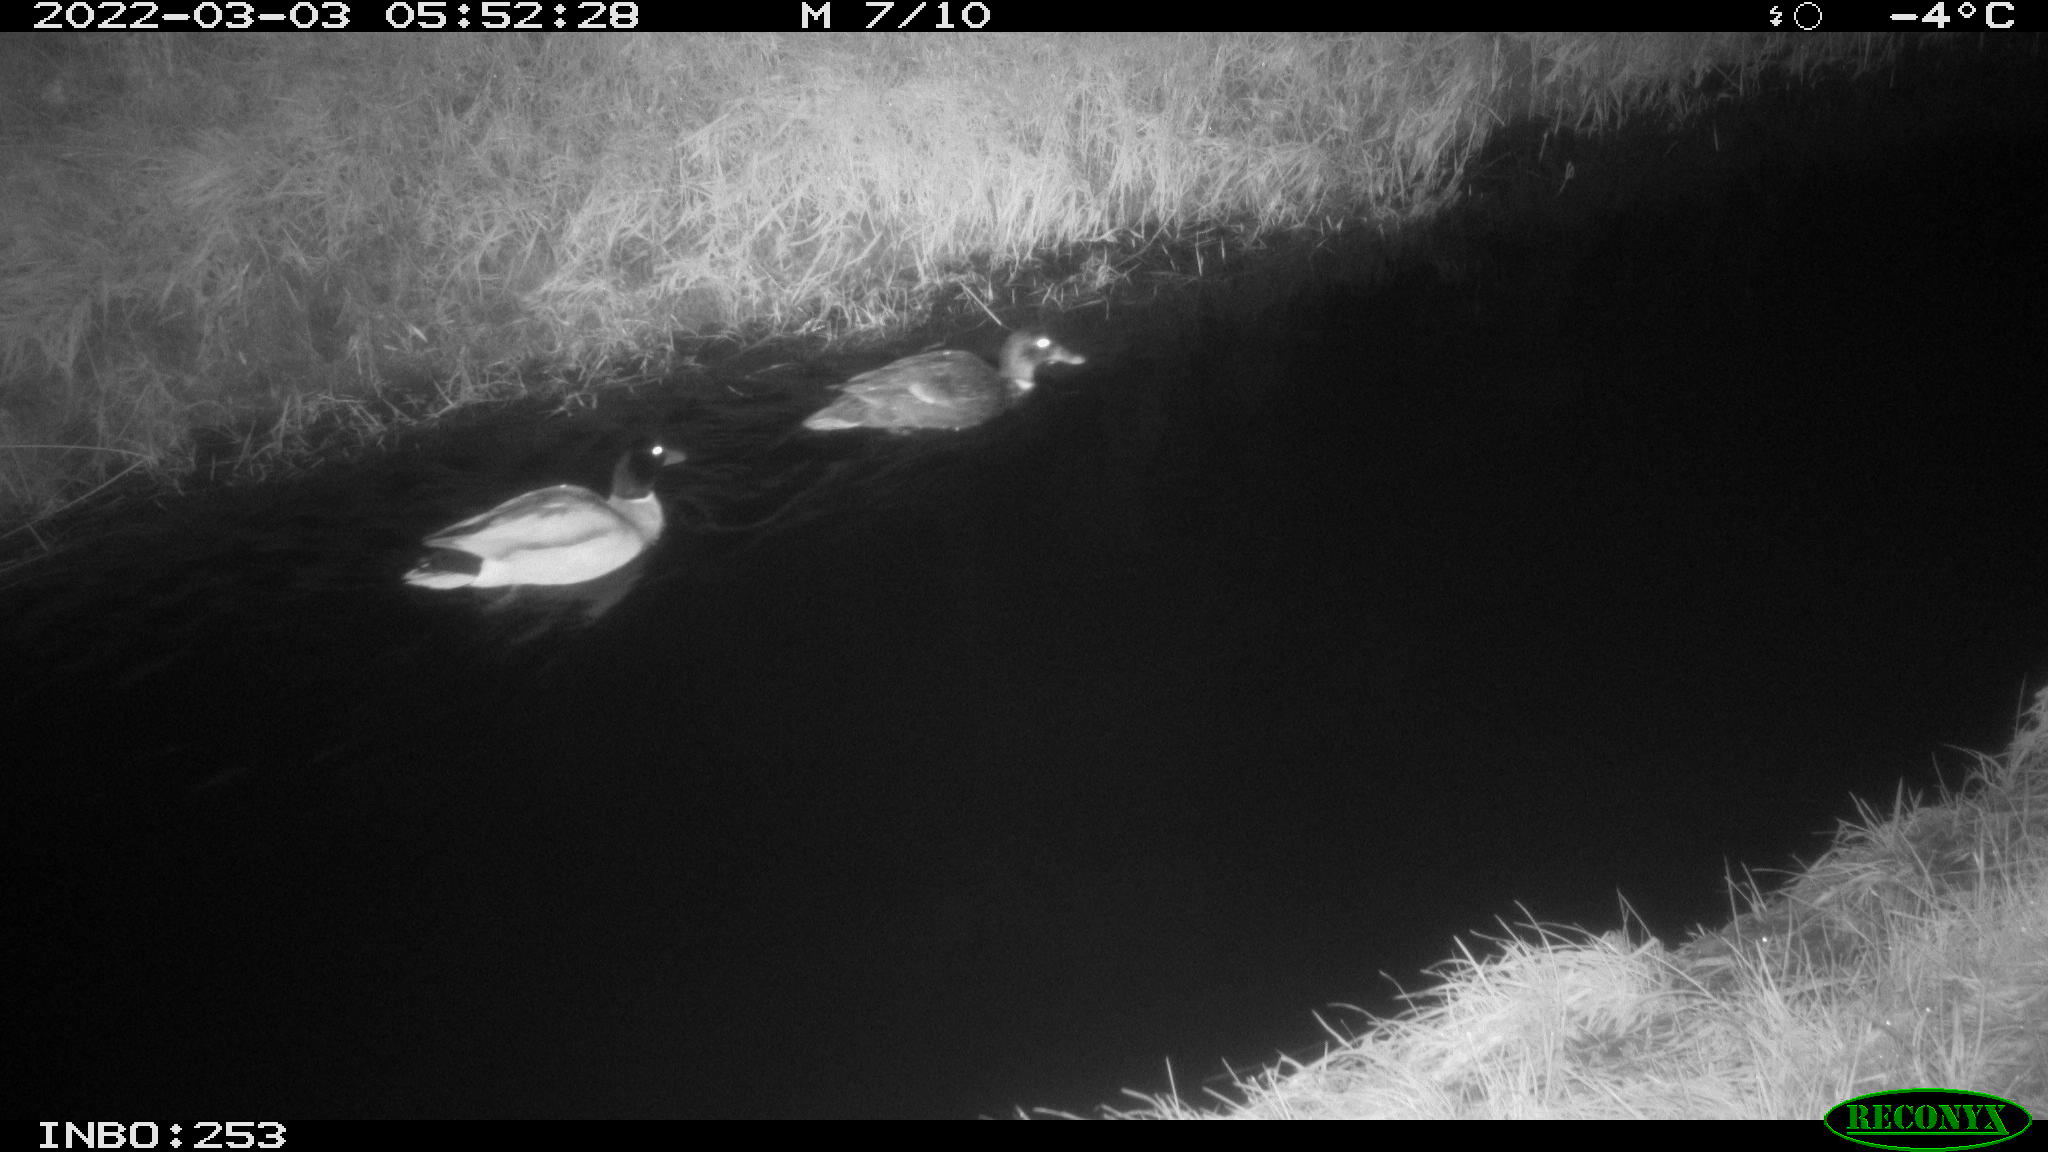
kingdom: Animalia
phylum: Chordata
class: Aves
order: Anseriformes
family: Anatidae
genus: Anas
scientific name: Anas platyrhynchos
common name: Mallard
